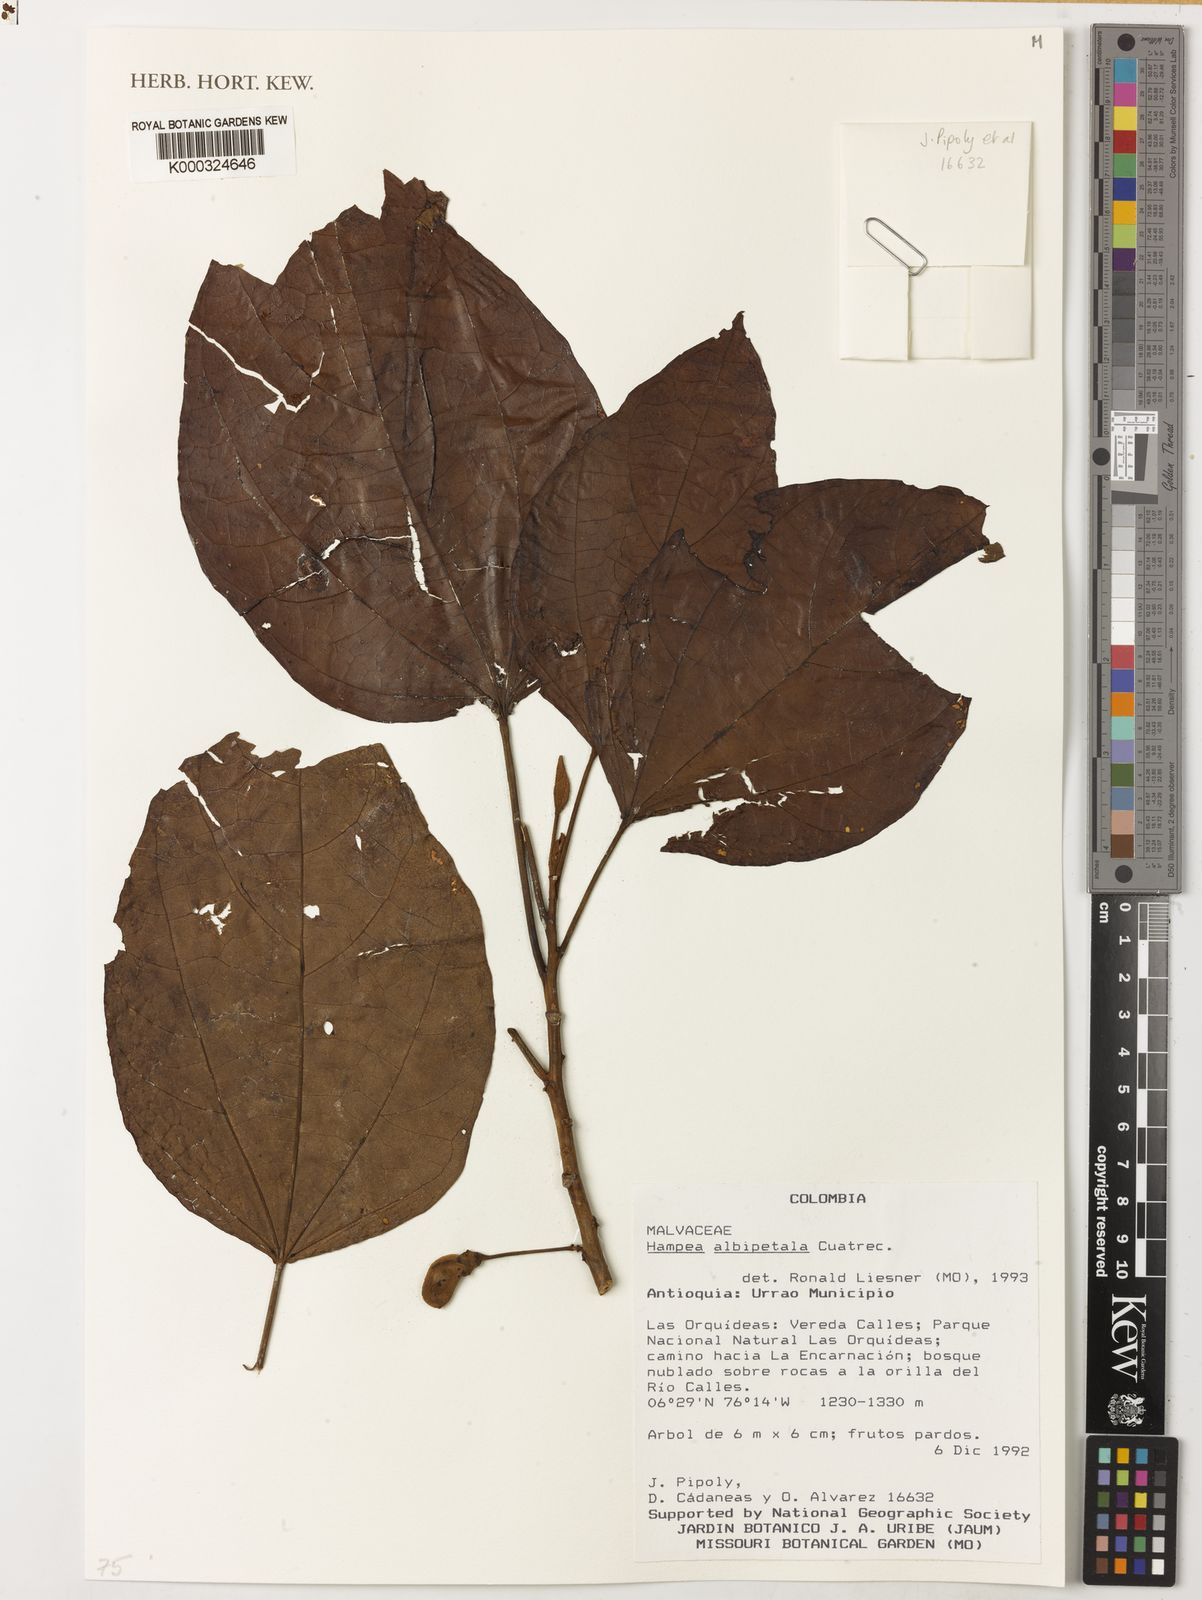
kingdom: Plantae
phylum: Tracheophyta
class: Magnoliopsida
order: Malvales
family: Malvaceae
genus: Hampea
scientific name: Hampea albipetala
